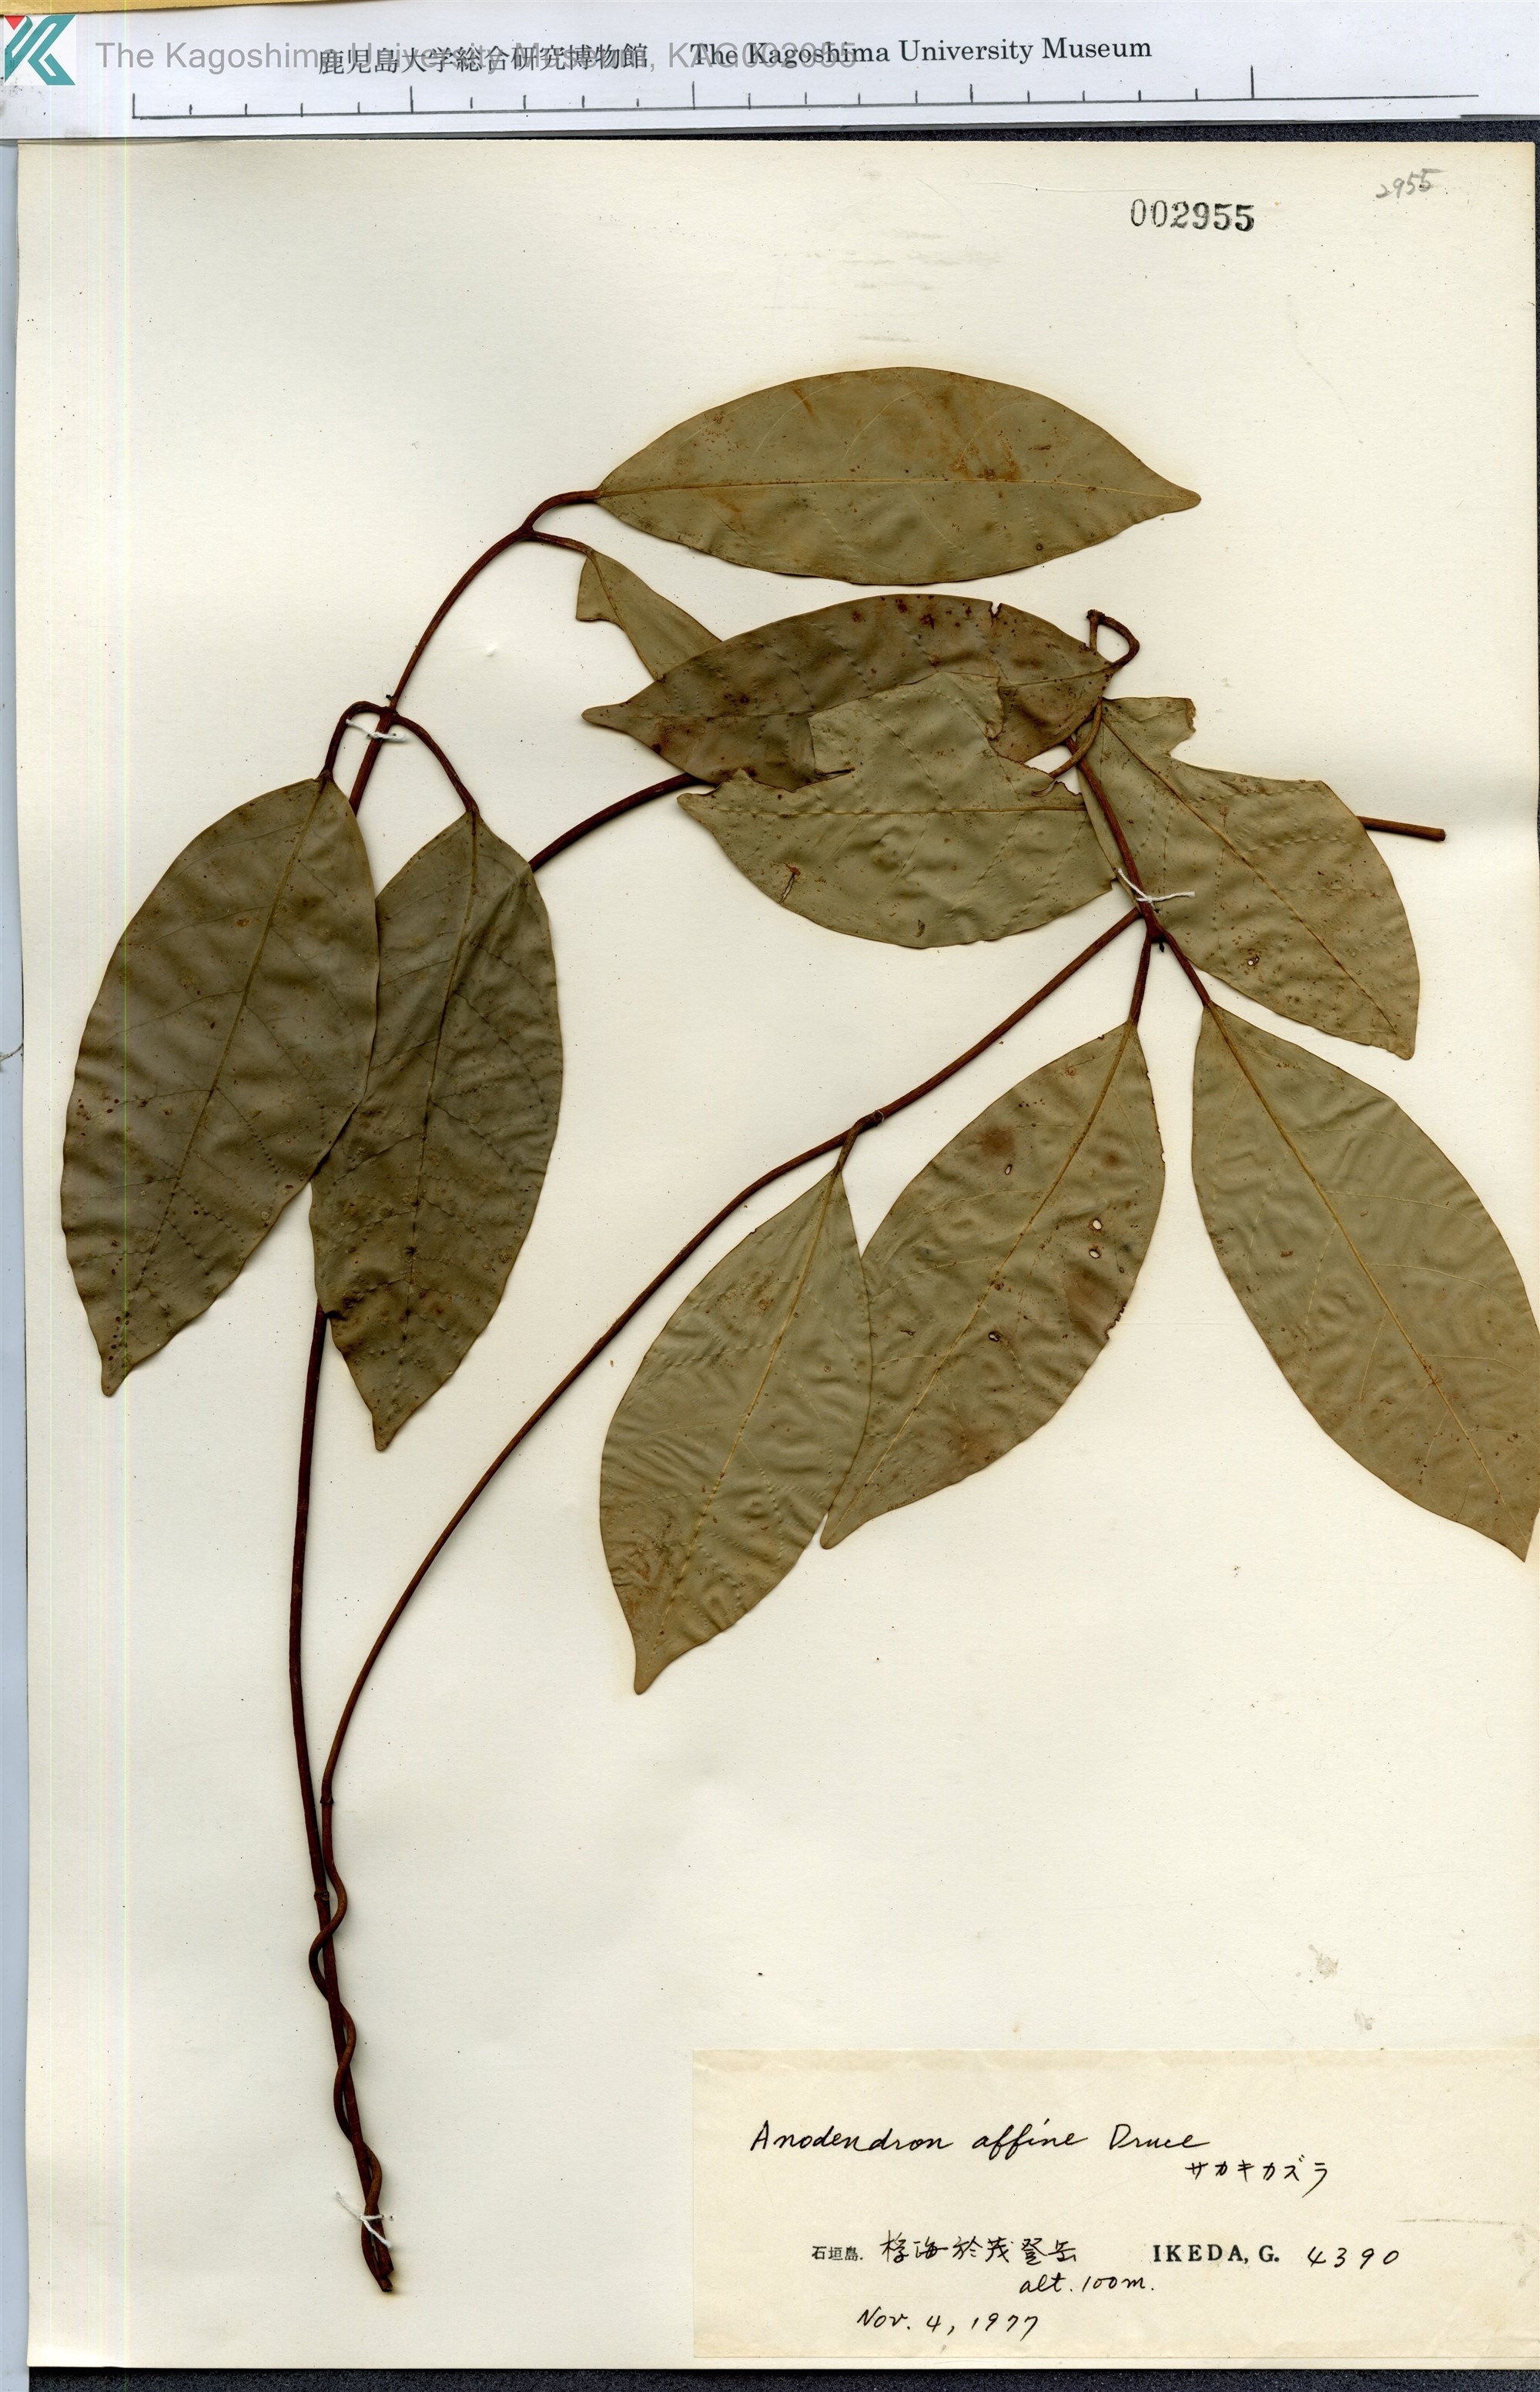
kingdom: Plantae
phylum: Tracheophyta
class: Magnoliopsida
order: Gentianales
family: Apocynaceae
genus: Anodendron
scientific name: Anodendron affine
